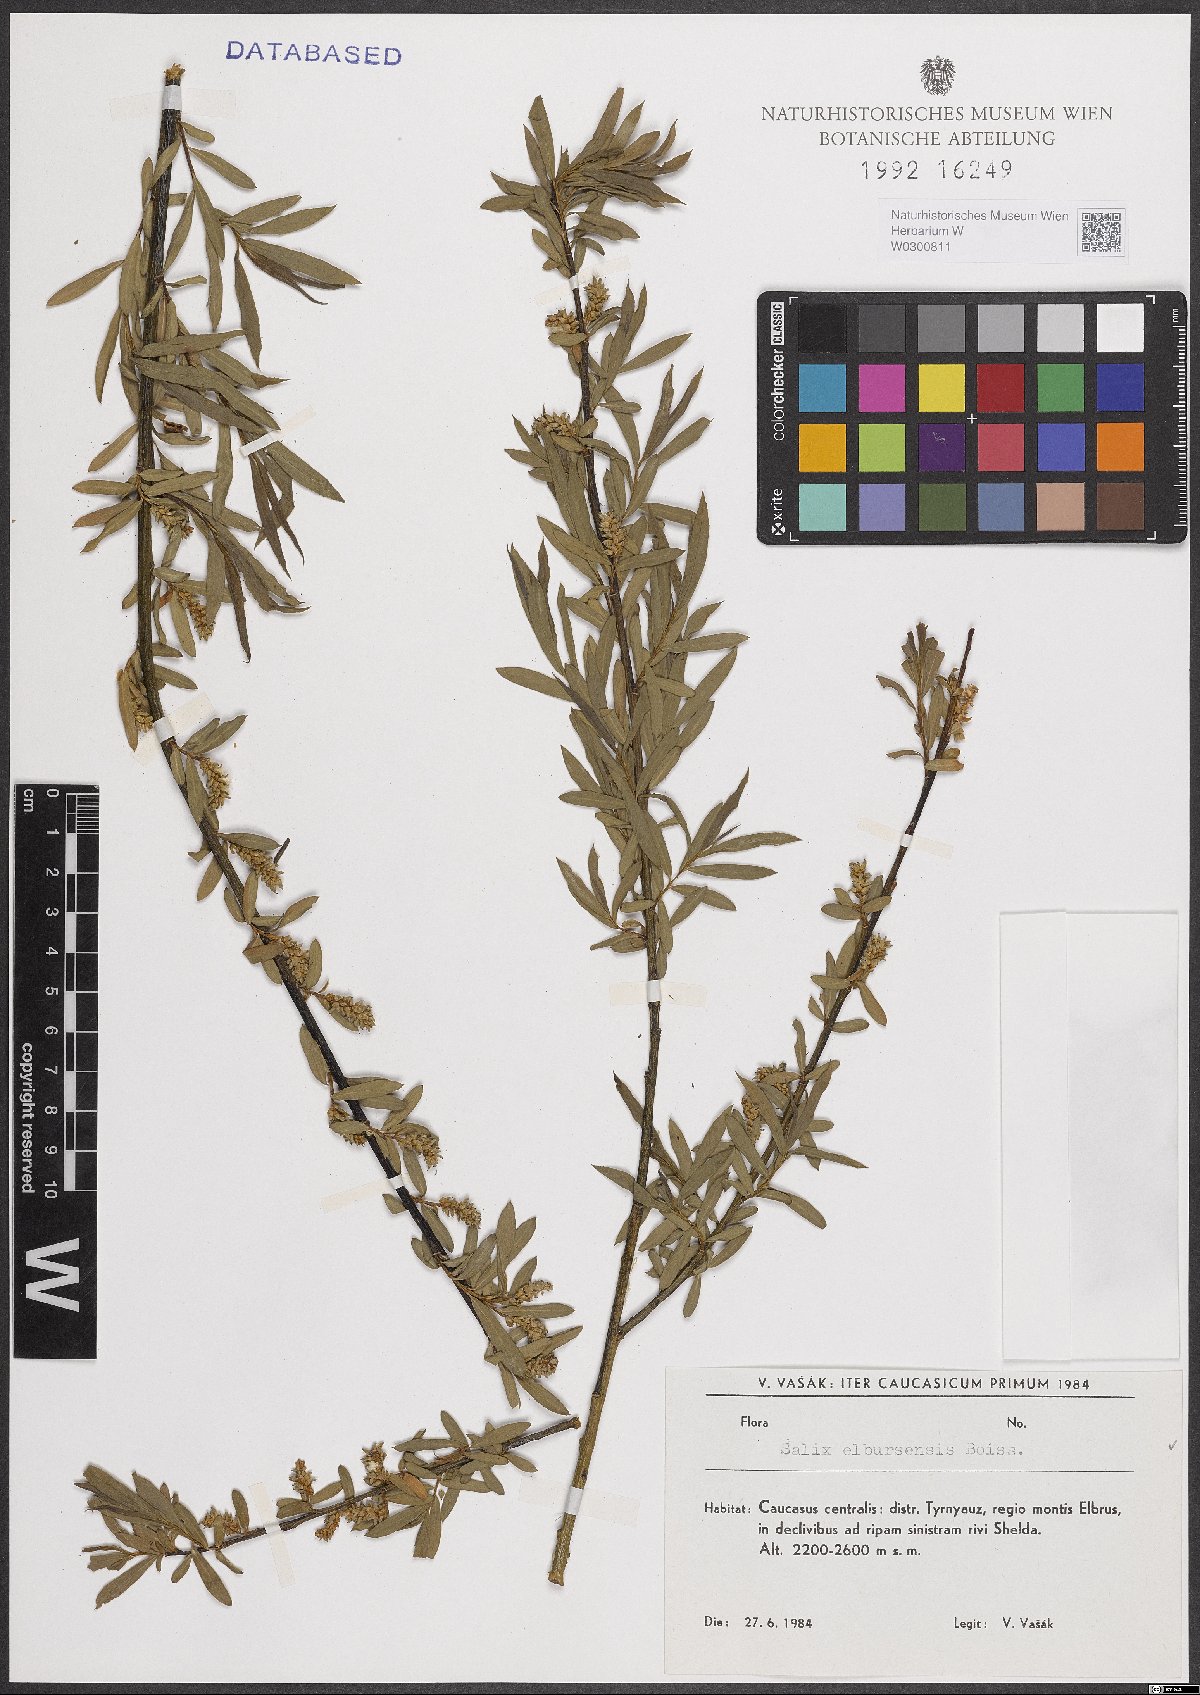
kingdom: Plantae
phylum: Tracheophyta
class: Magnoliopsida
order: Malpighiales
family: Salicaceae
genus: Salix
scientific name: Salix elbursensis
